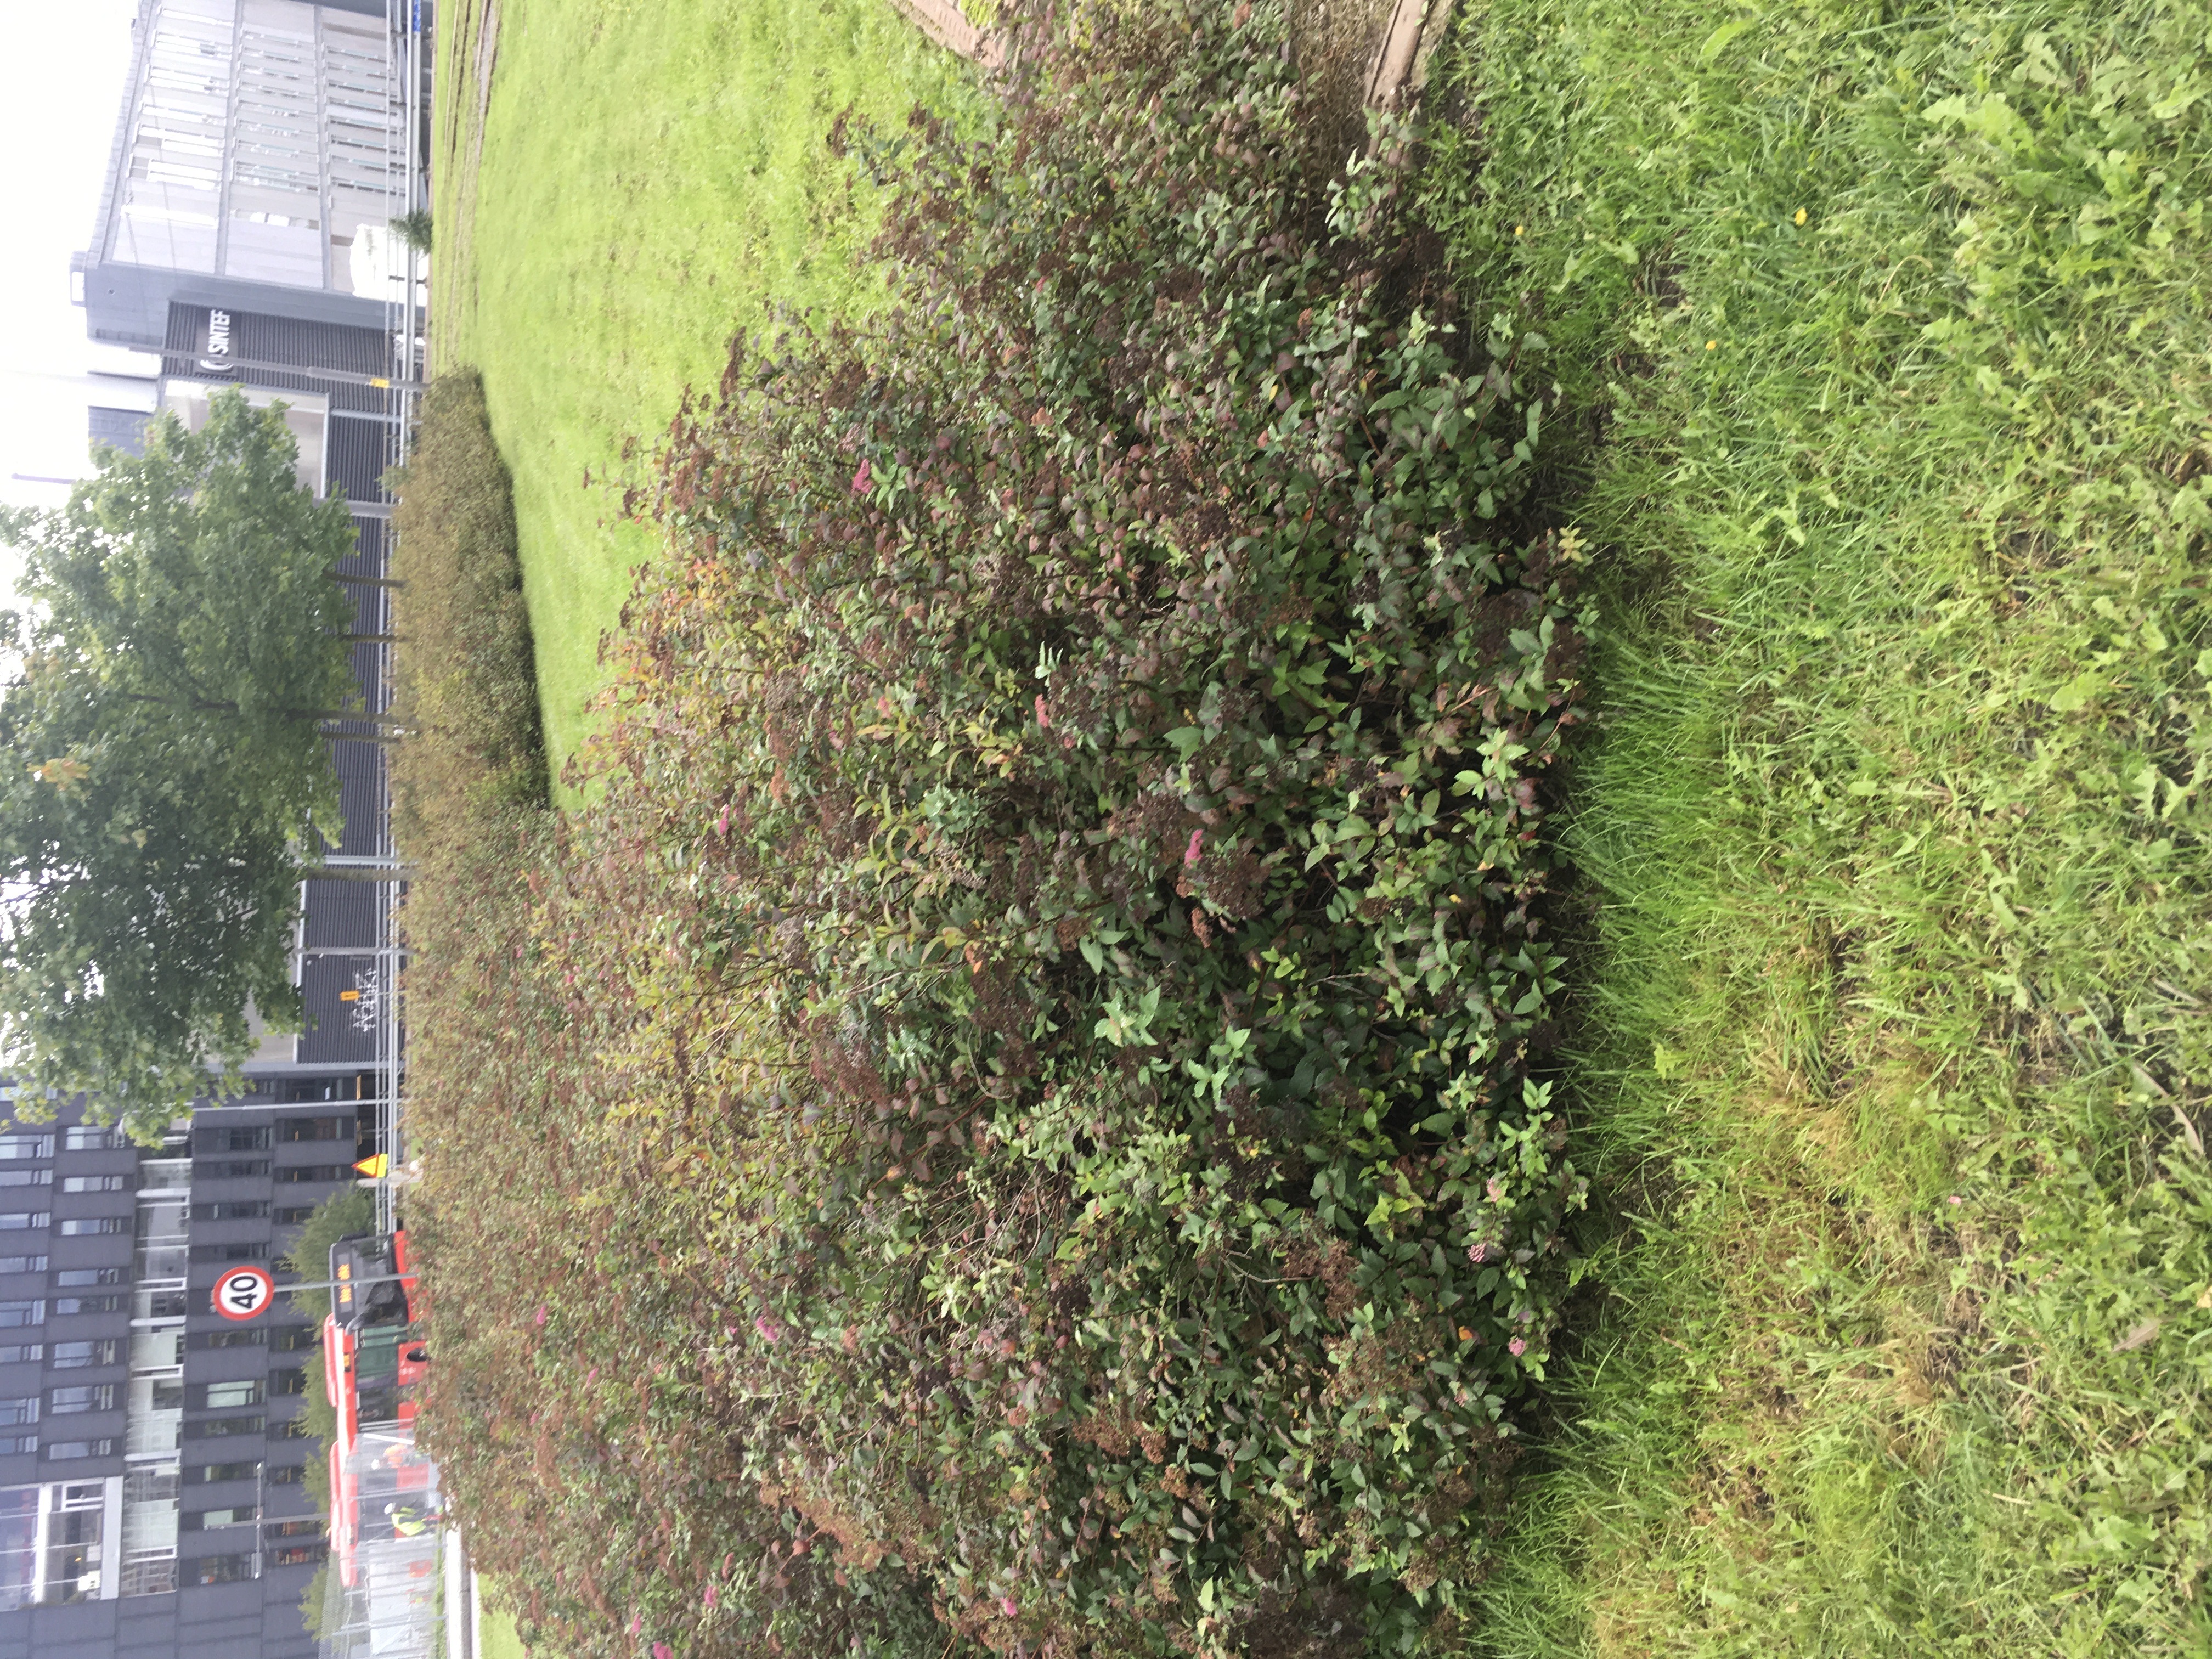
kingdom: Plantae
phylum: Tracheophyta
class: Magnoliopsida
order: Rosales
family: Rosaceae
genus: Spiraea
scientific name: Spiraea japonica
